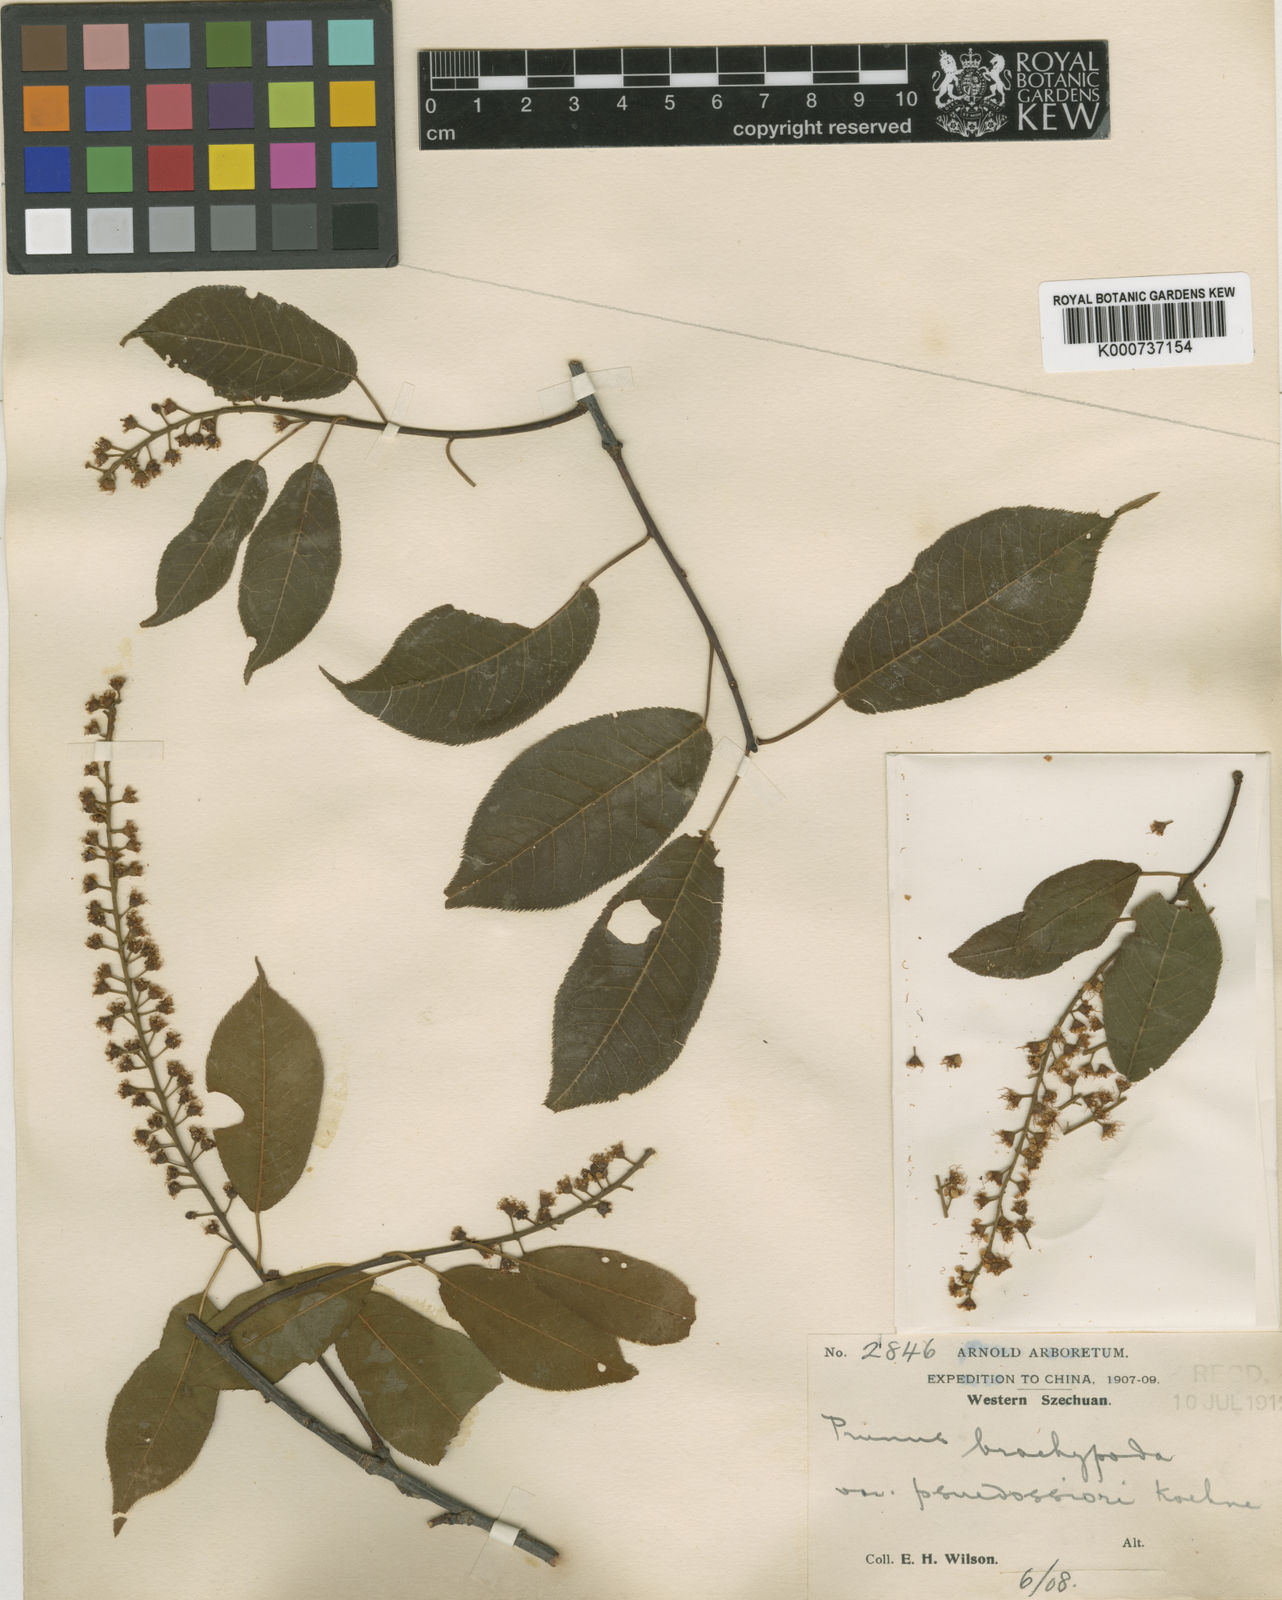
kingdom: Plantae
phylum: Tracheophyta
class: Magnoliopsida
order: Rosales
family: Rosaceae
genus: Prunus
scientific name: Prunus brachypoda
